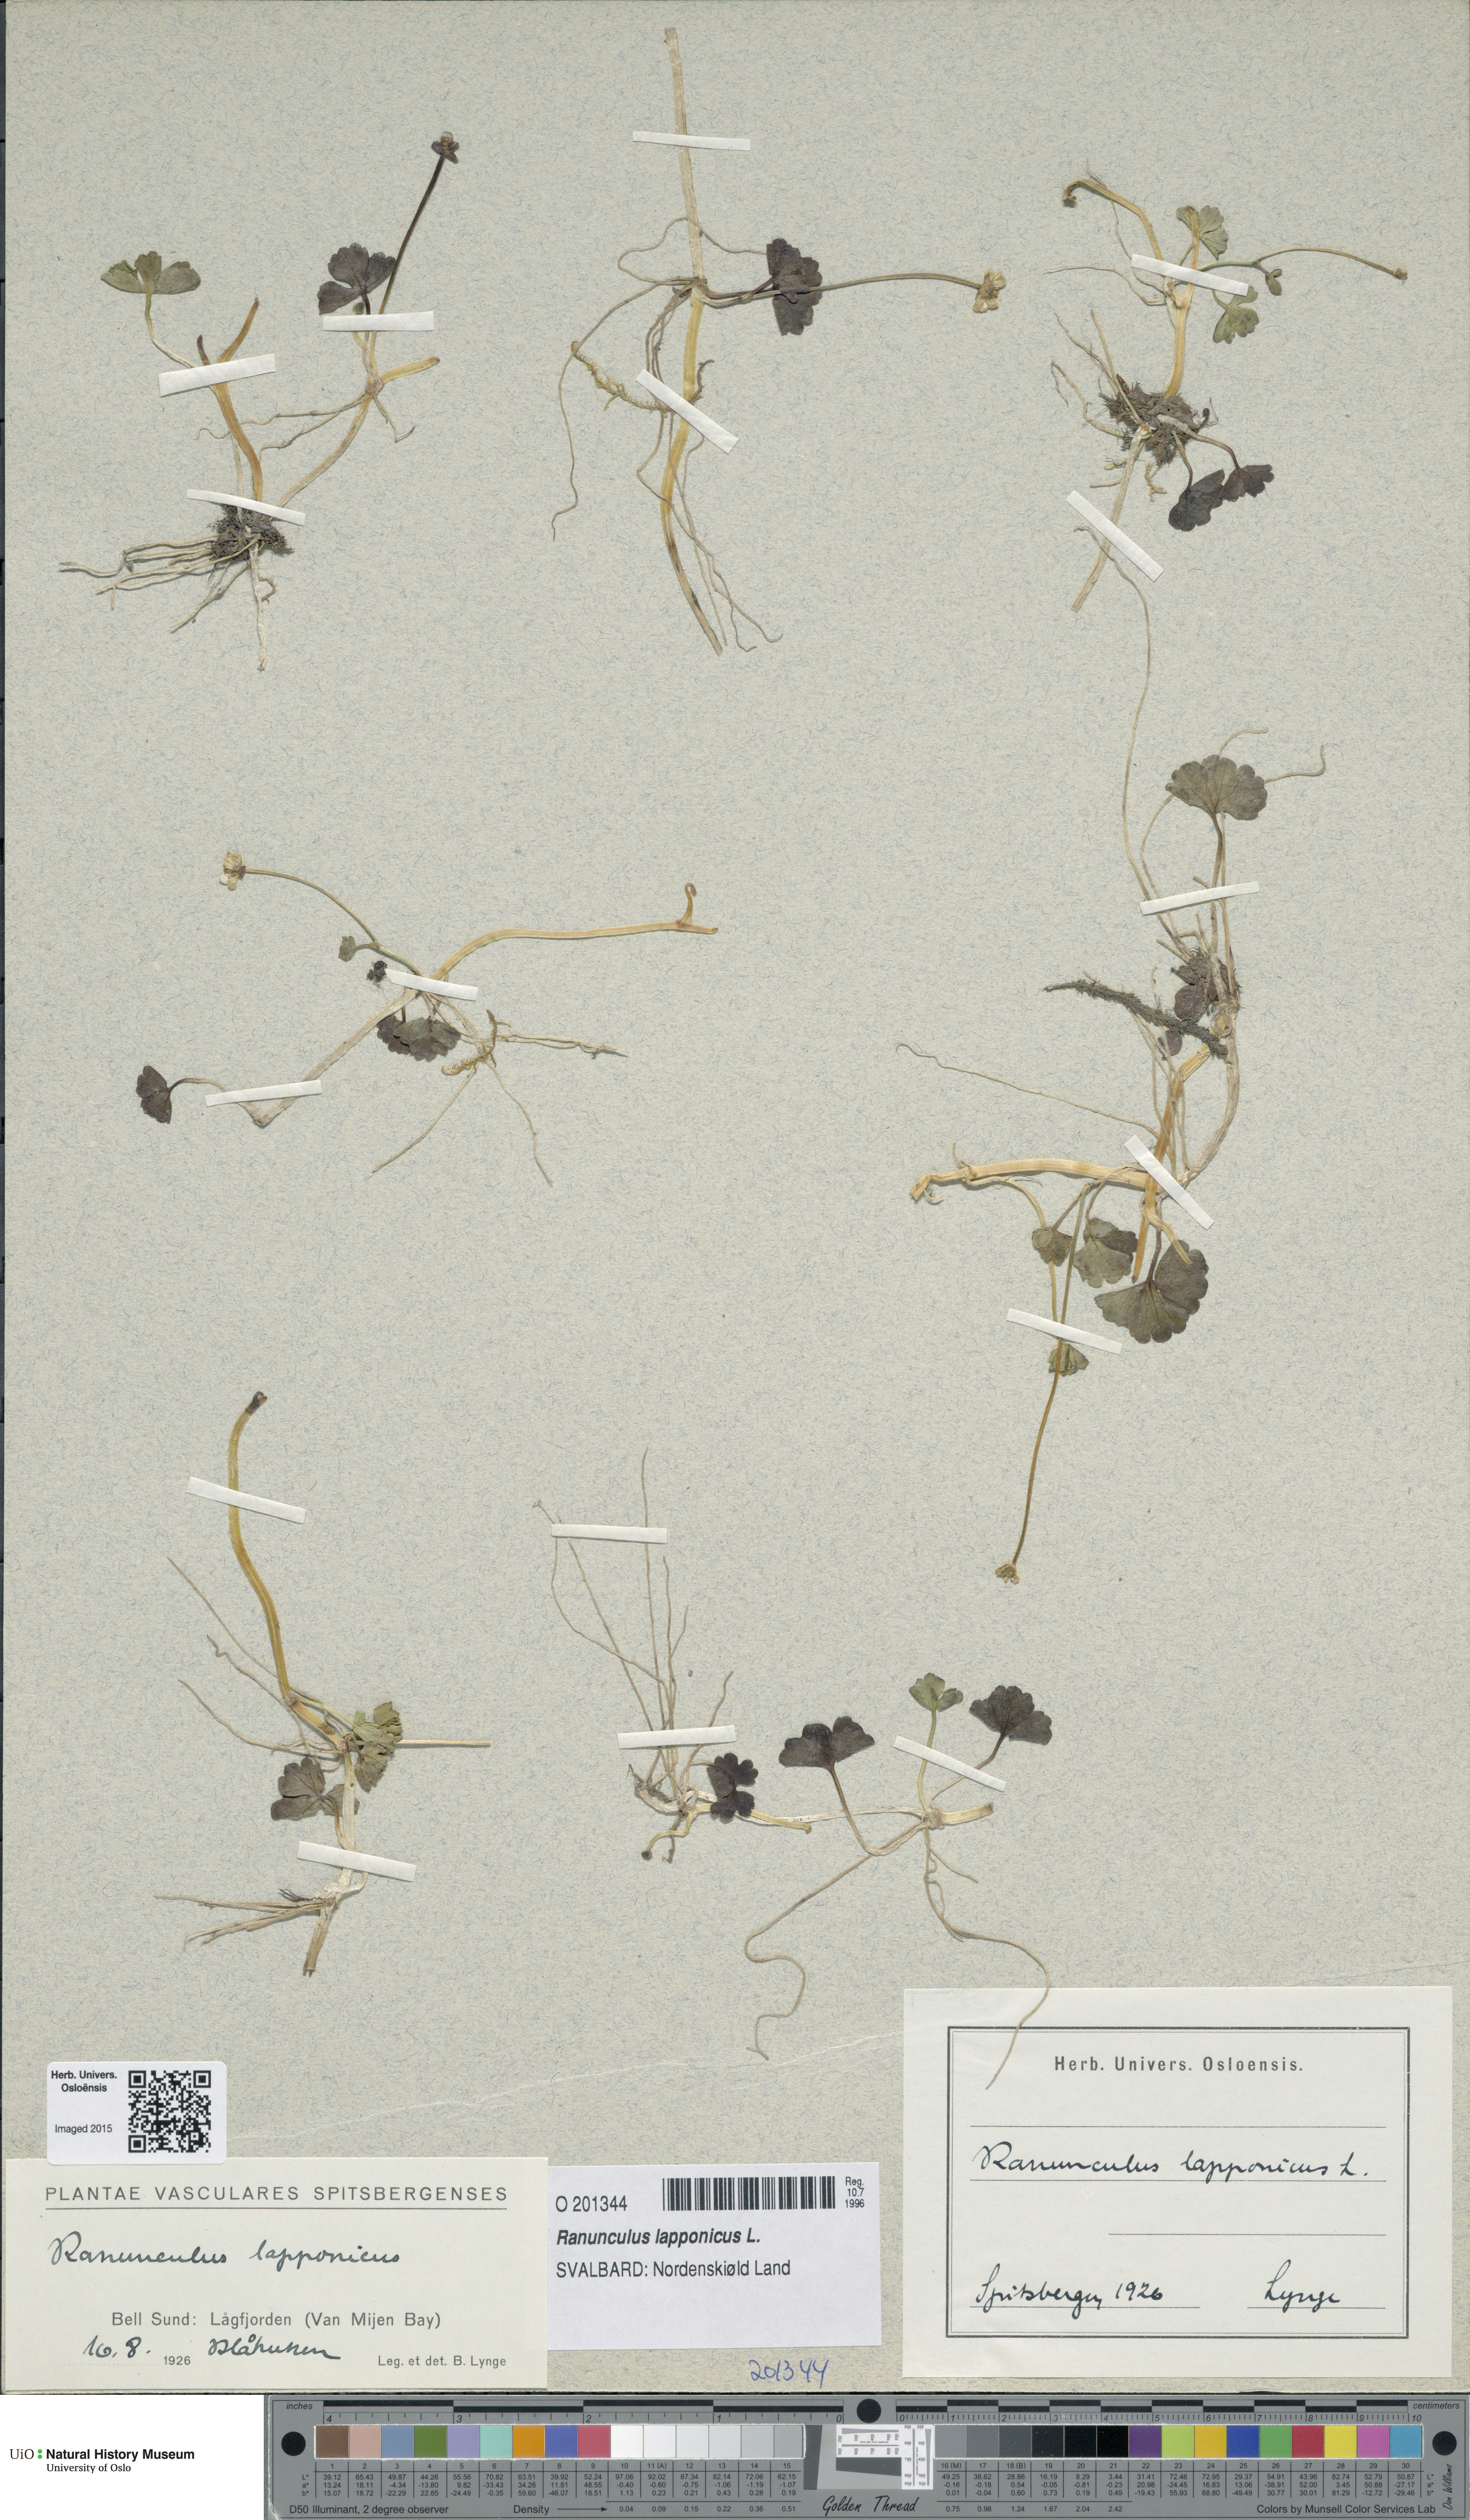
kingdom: Plantae
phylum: Tracheophyta
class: Magnoliopsida
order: Ranunculales
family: Ranunculaceae
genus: Coptidium
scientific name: Coptidium lapponicum
